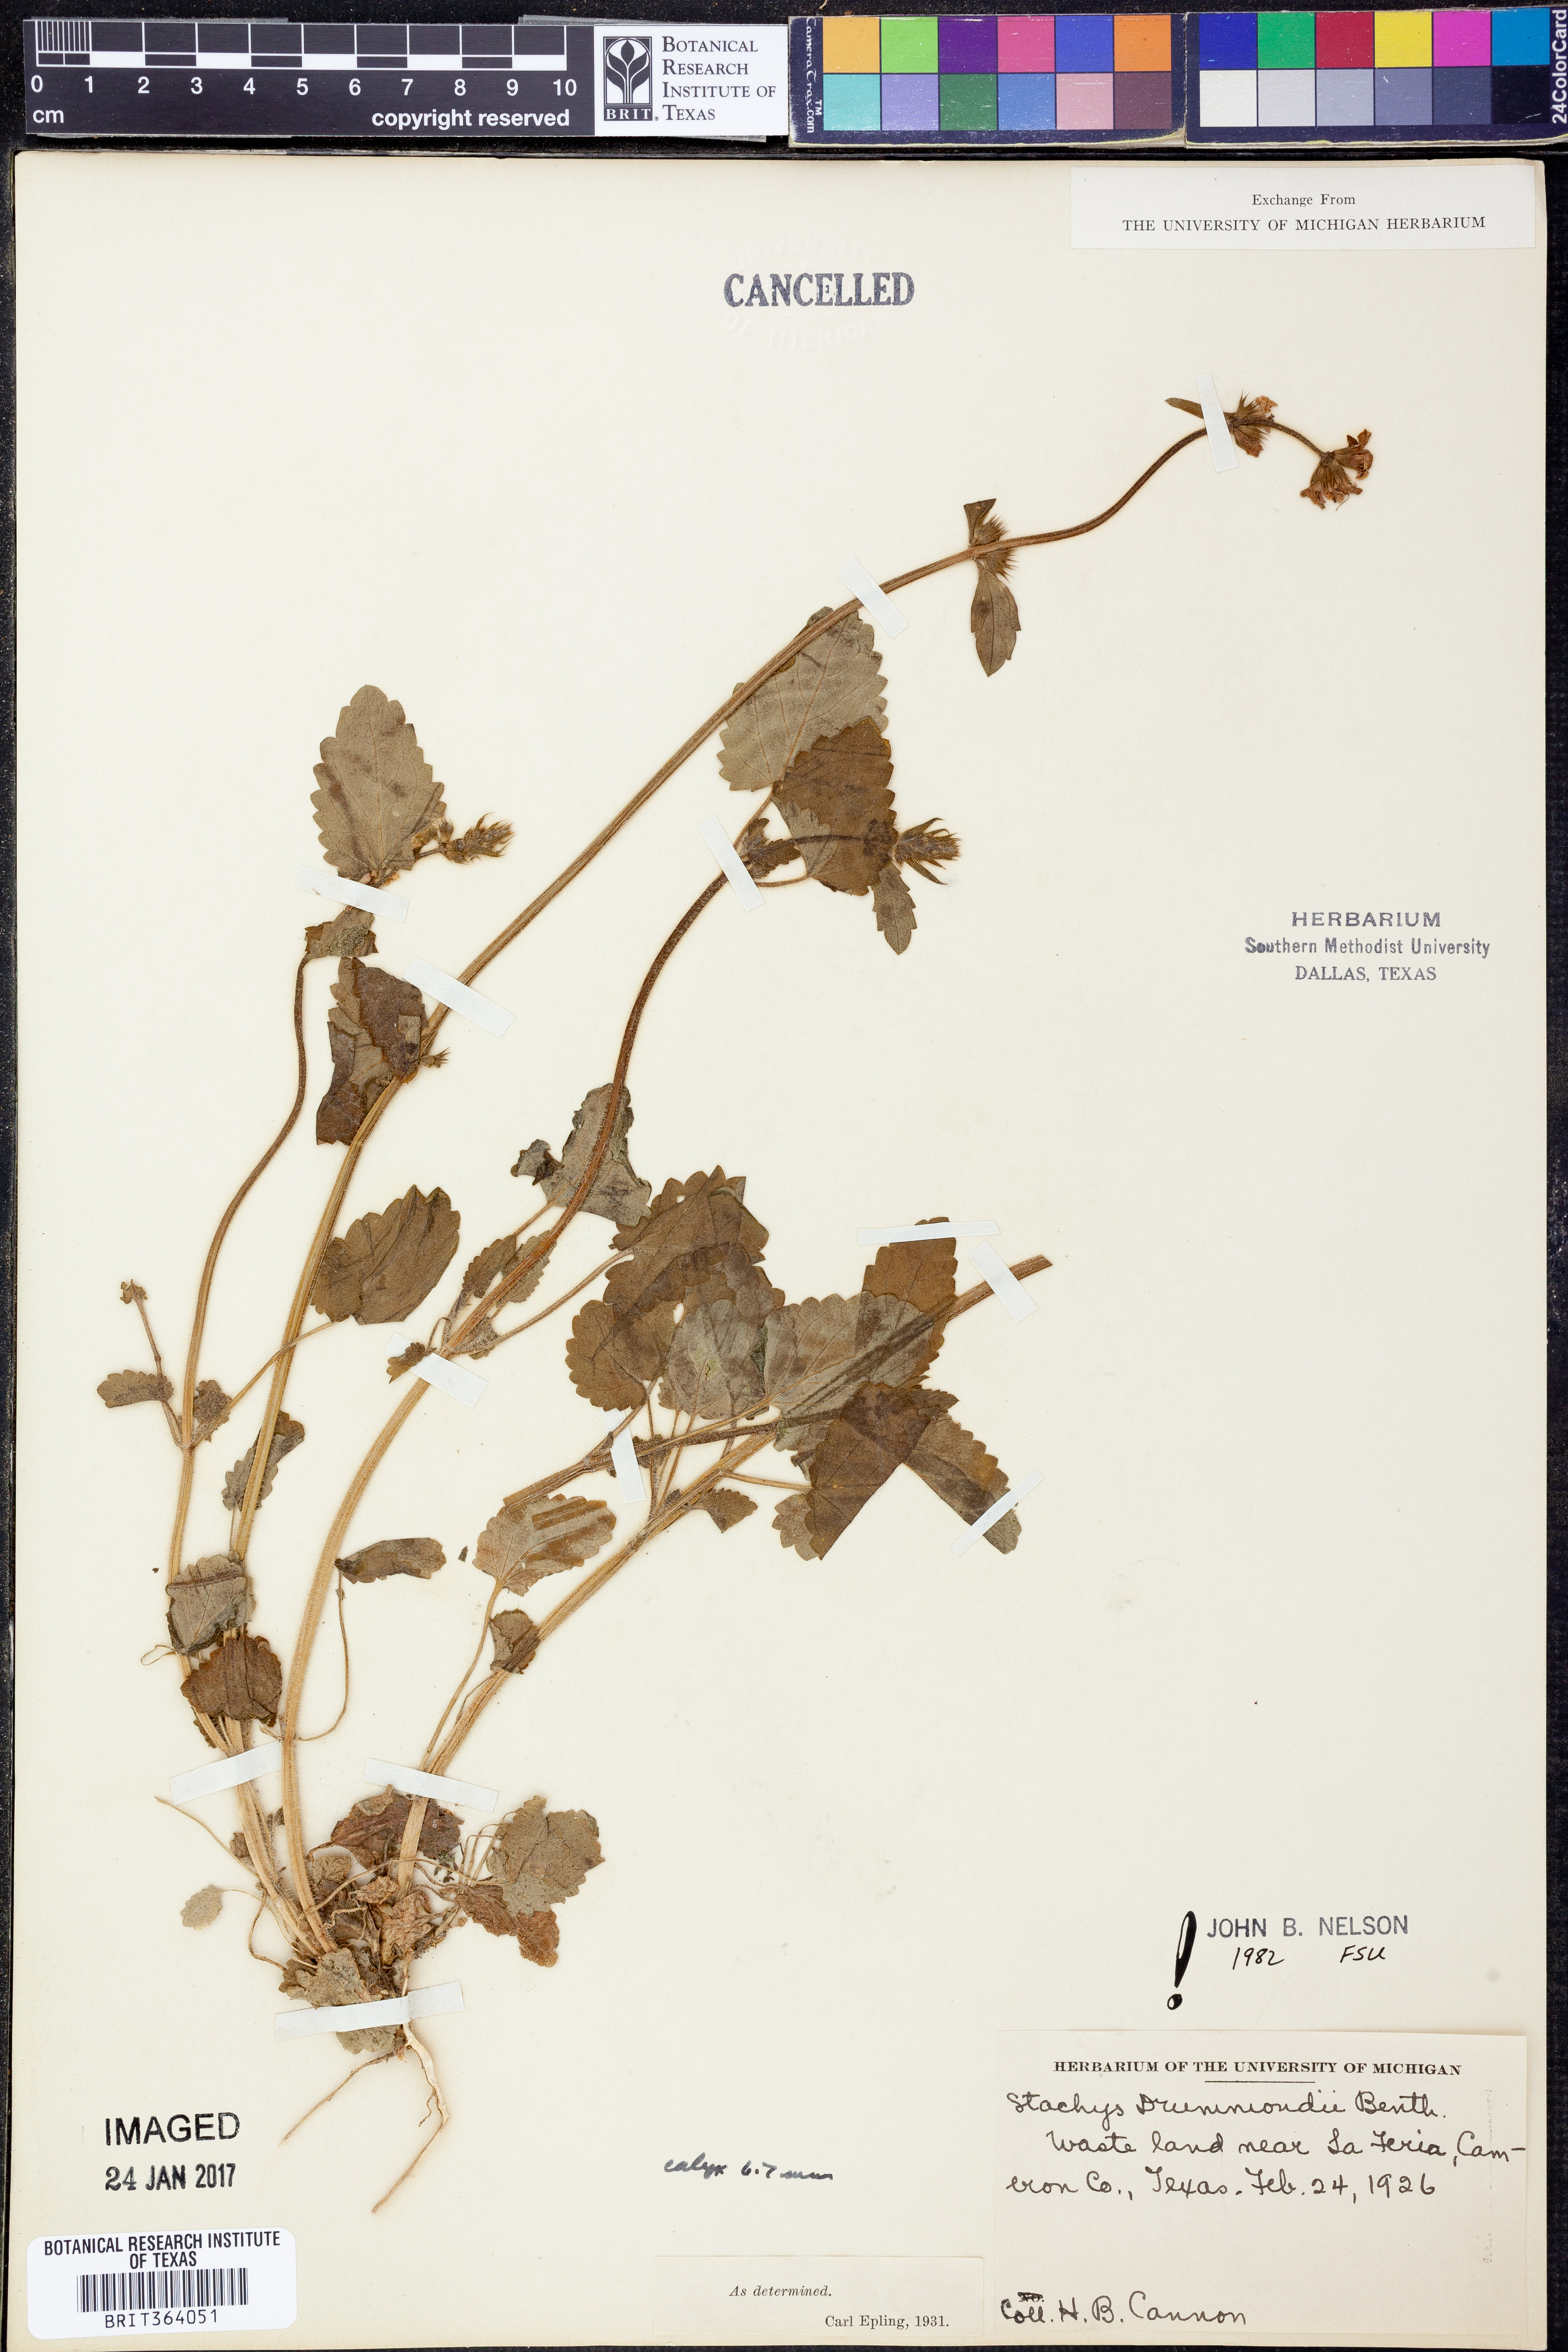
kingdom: Plantae
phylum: Tracheophyta
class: Magnoliopsida
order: Lamiales
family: Lamiaceae
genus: Stachys
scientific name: Stachys drummondii
